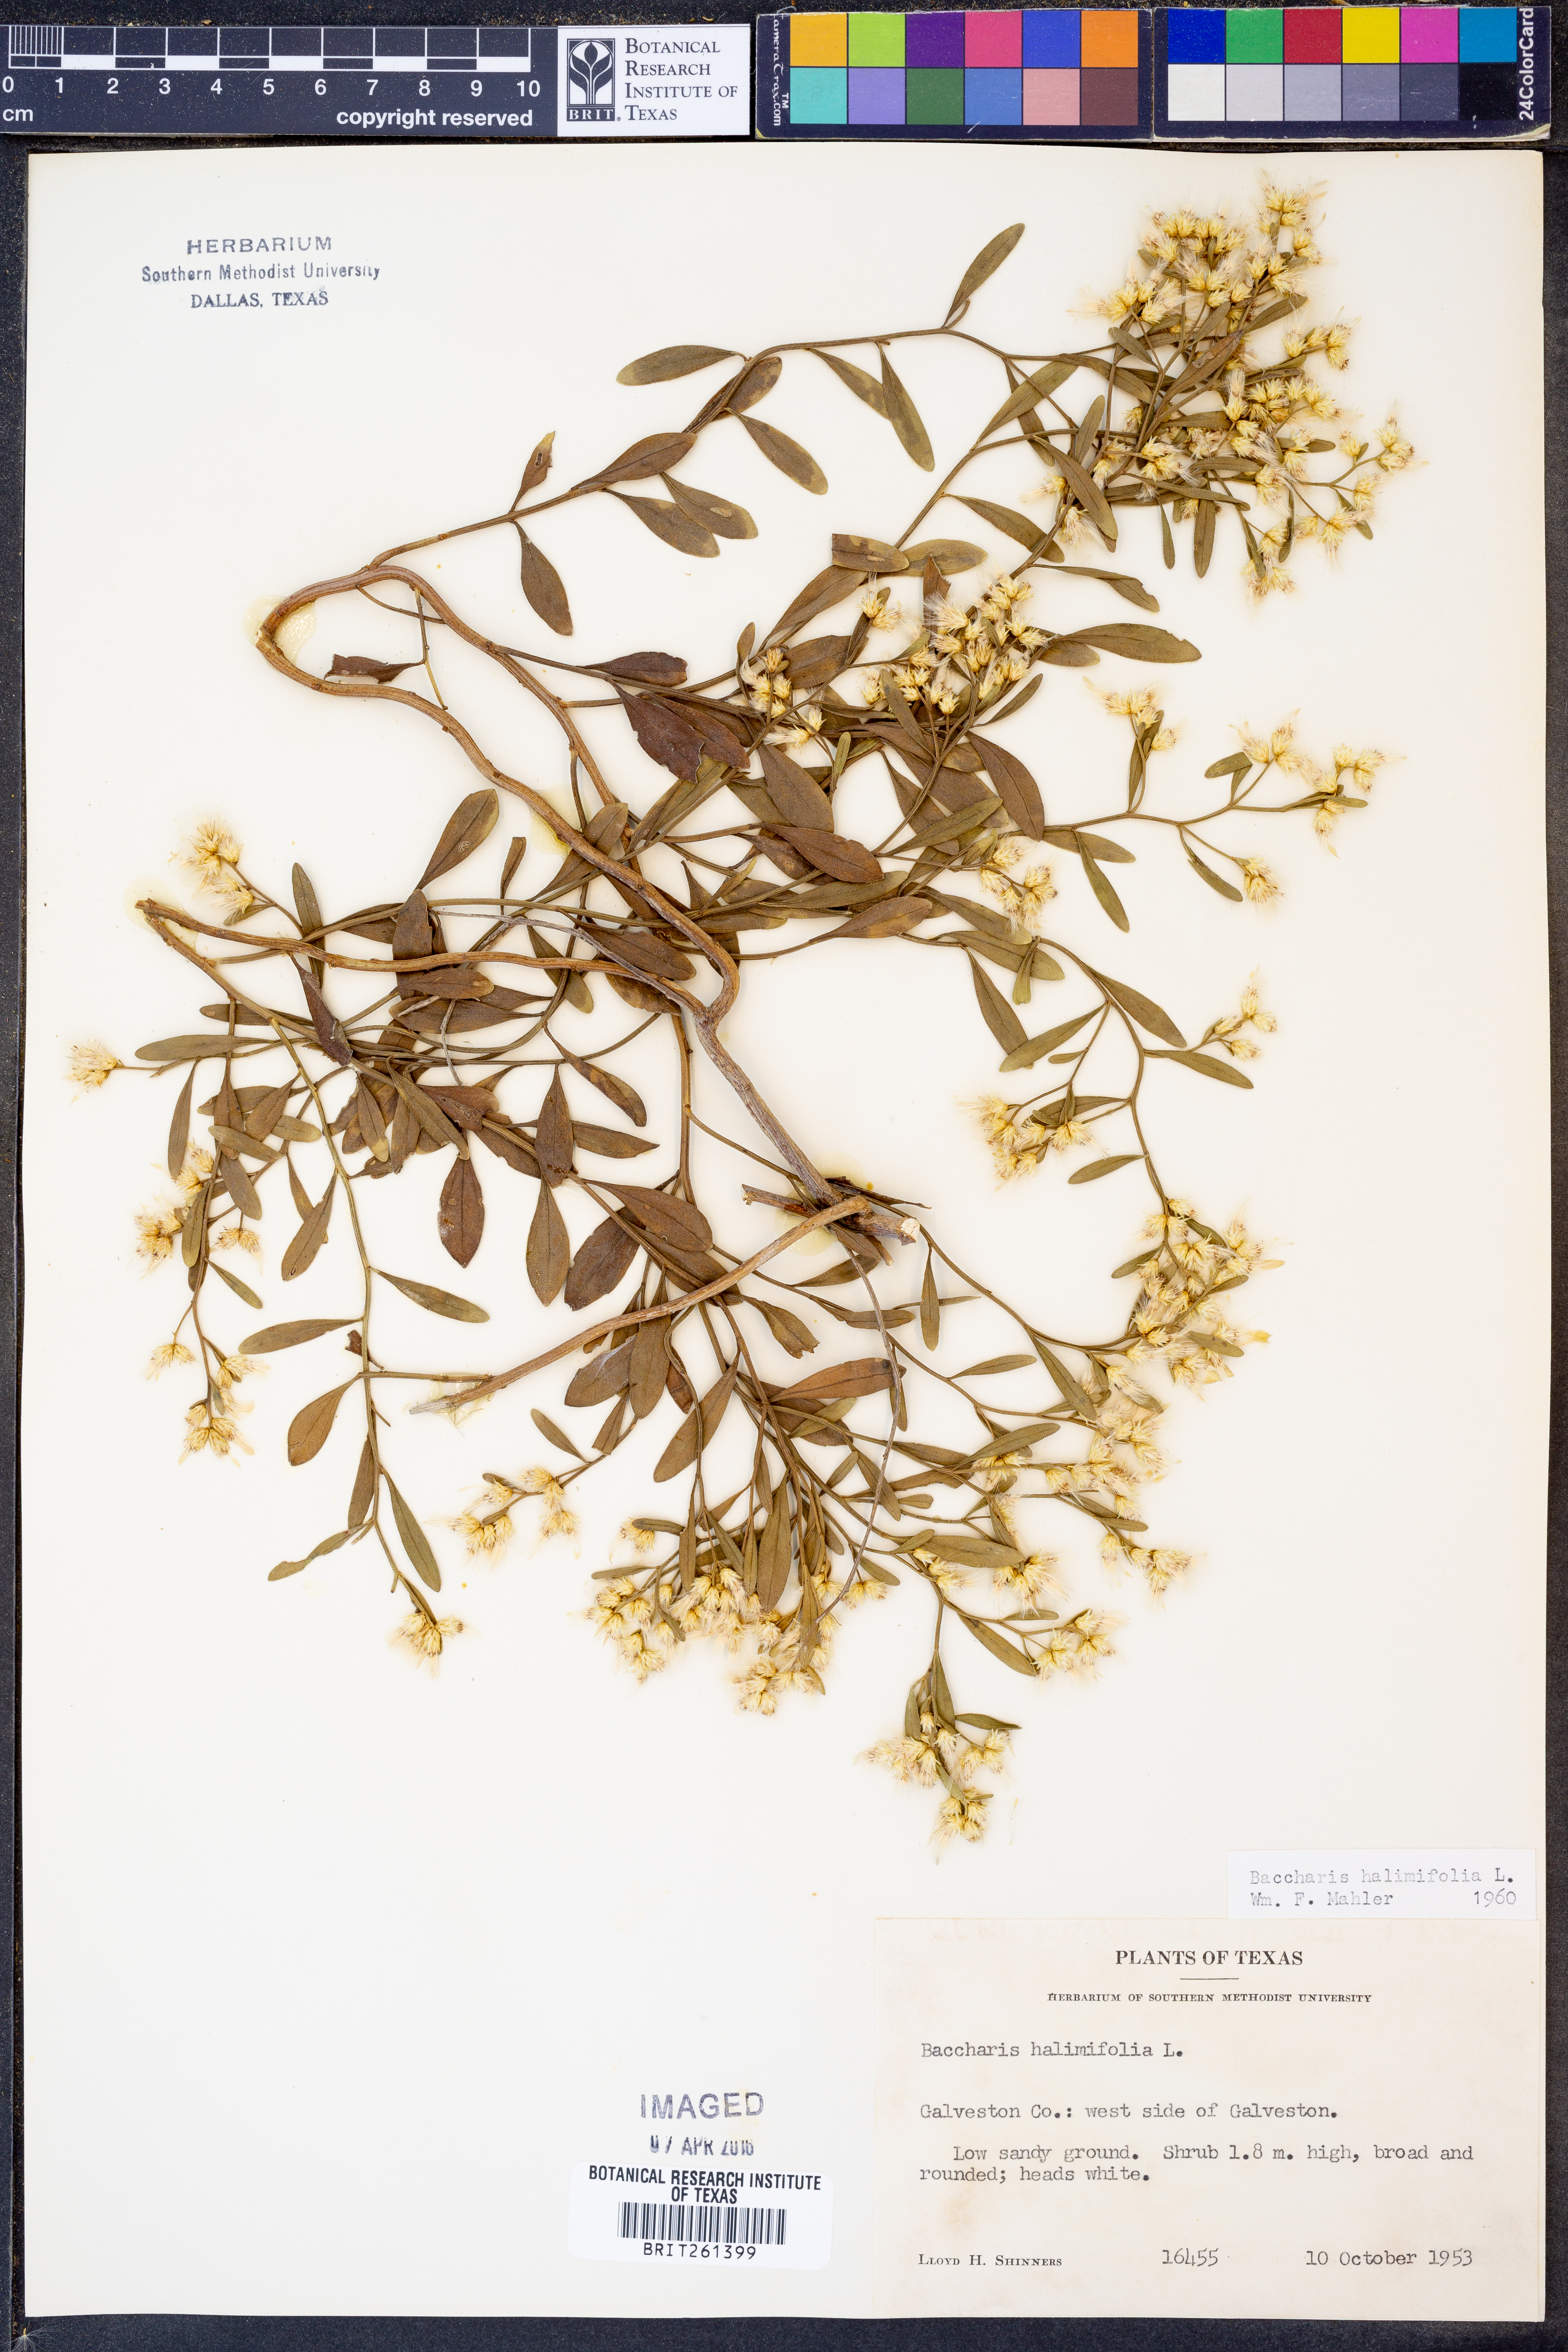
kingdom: Plantae
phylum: Tracheophyta
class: Magnoliopsida
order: Asterales
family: Asteraceae
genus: Nidorella
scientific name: Nidorella ivifolia
